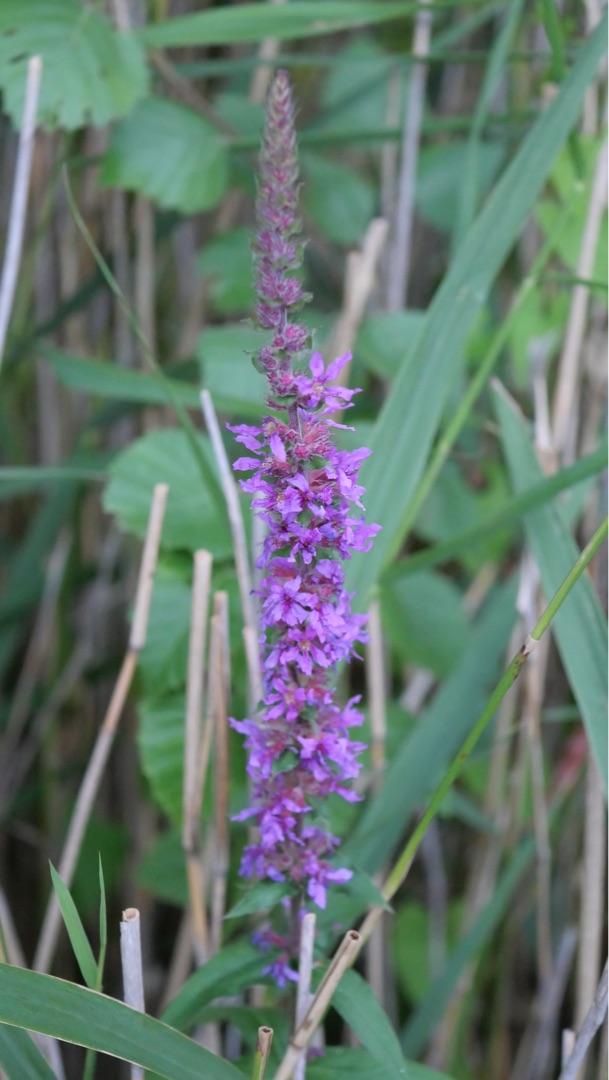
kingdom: Plantae
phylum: Tracheophyta
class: Magnoliopsida
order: Myrtales
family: Lythraceae
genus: Lythrum
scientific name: Lythrum salicaria
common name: Kattehale
